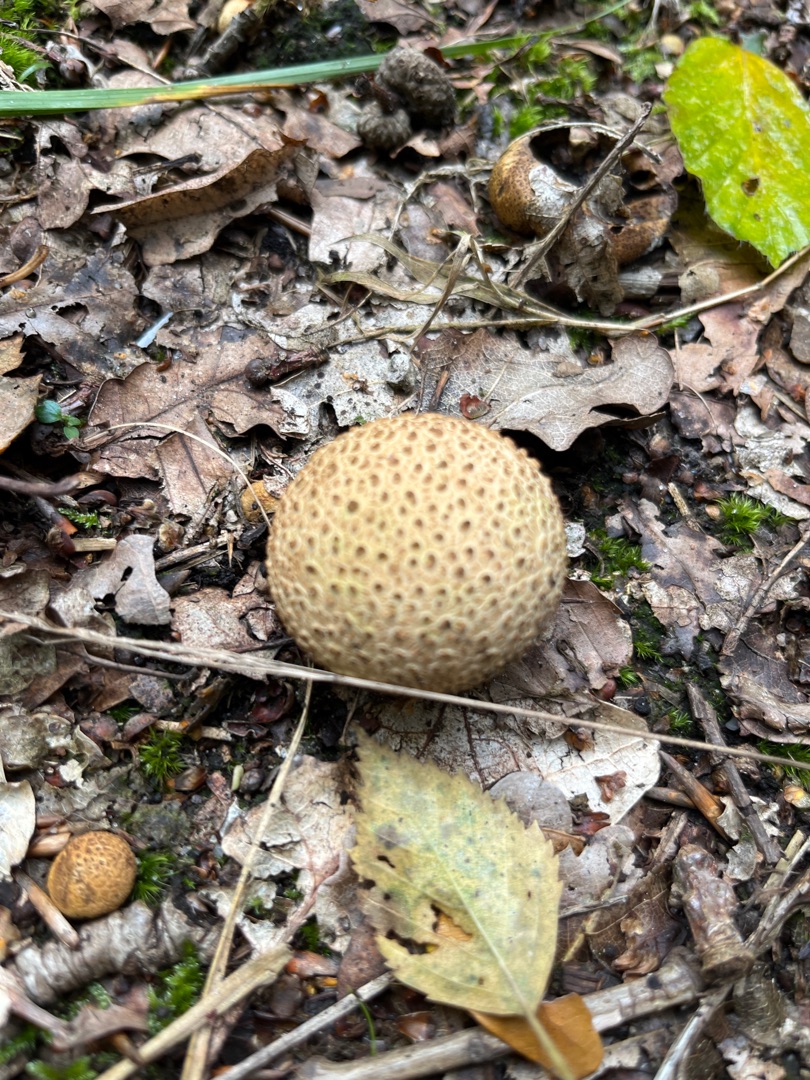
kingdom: Fungi
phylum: Basidiomycota
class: Agaricomycetes
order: Boletales
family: Sclerodermataceae
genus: Scleroderma
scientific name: Scleroderma citrinum
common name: Almindelig bruskbold
